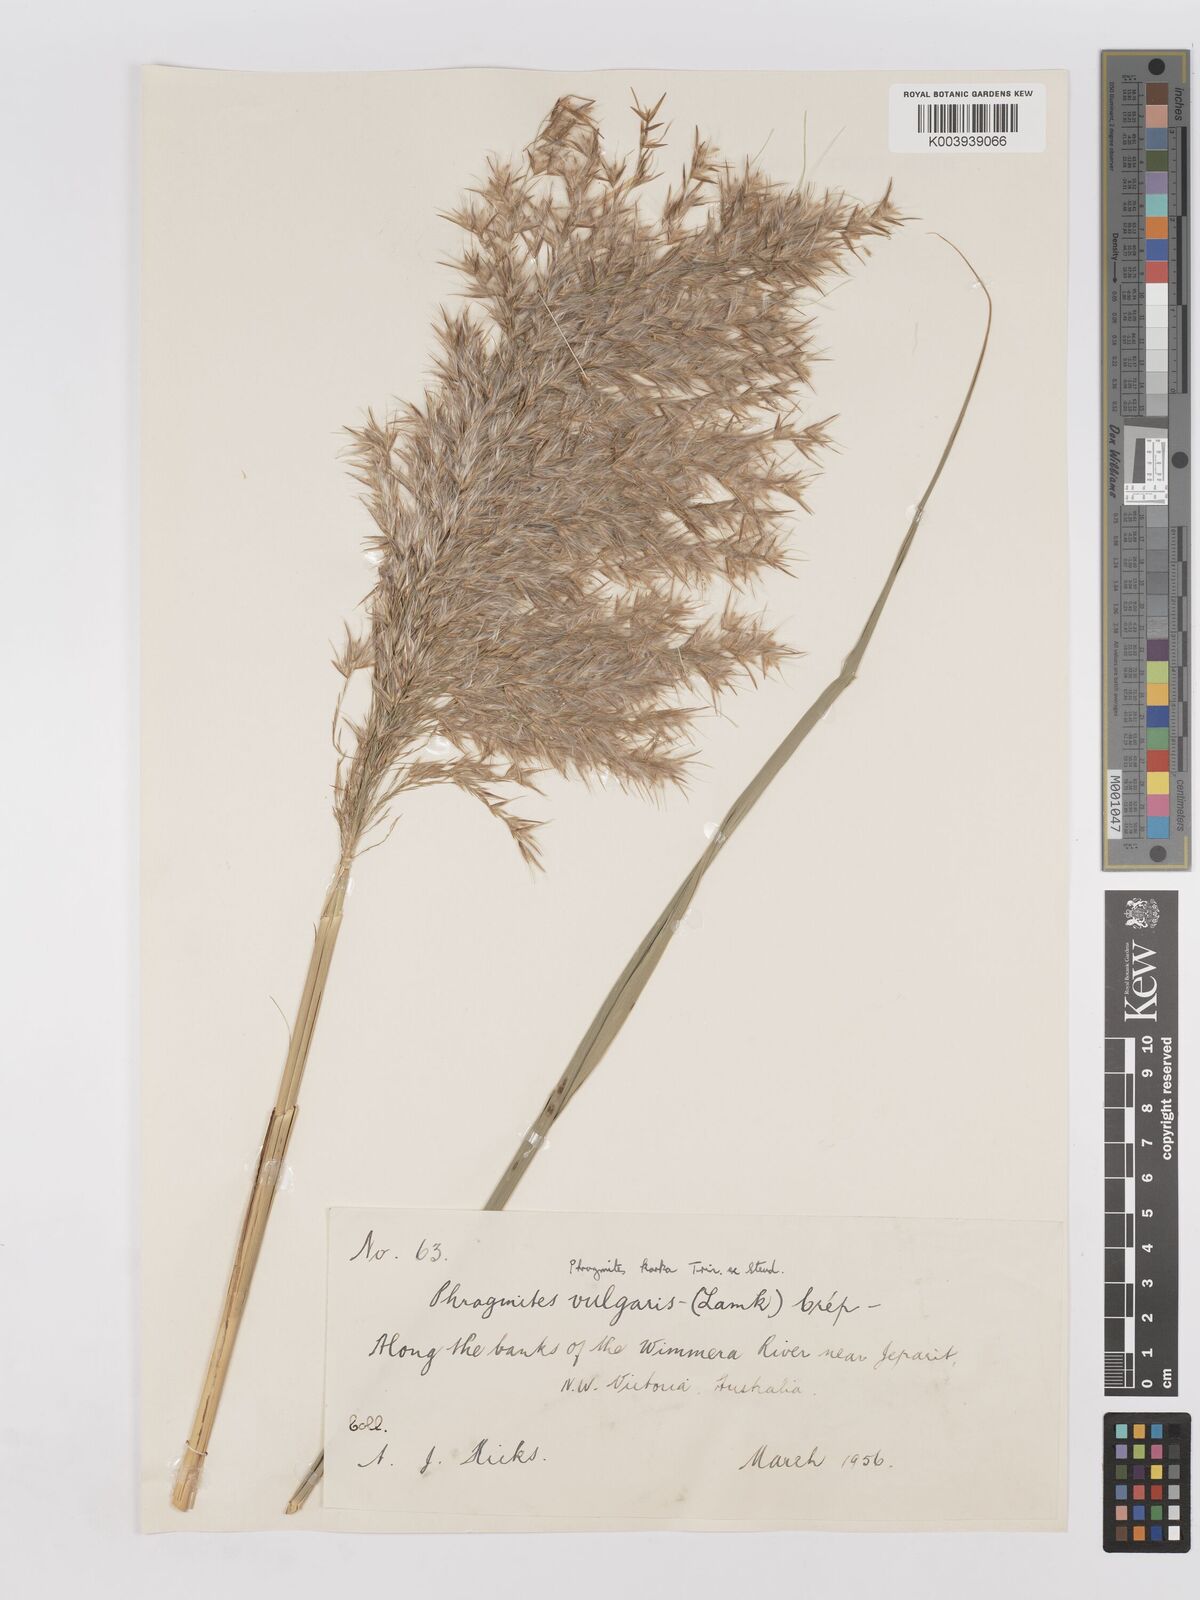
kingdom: Plantae
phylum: Tracheophyta
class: Liliopsida
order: Poales
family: Poaceae
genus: Phragmites
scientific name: Phragmites karka
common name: Tropical reed
